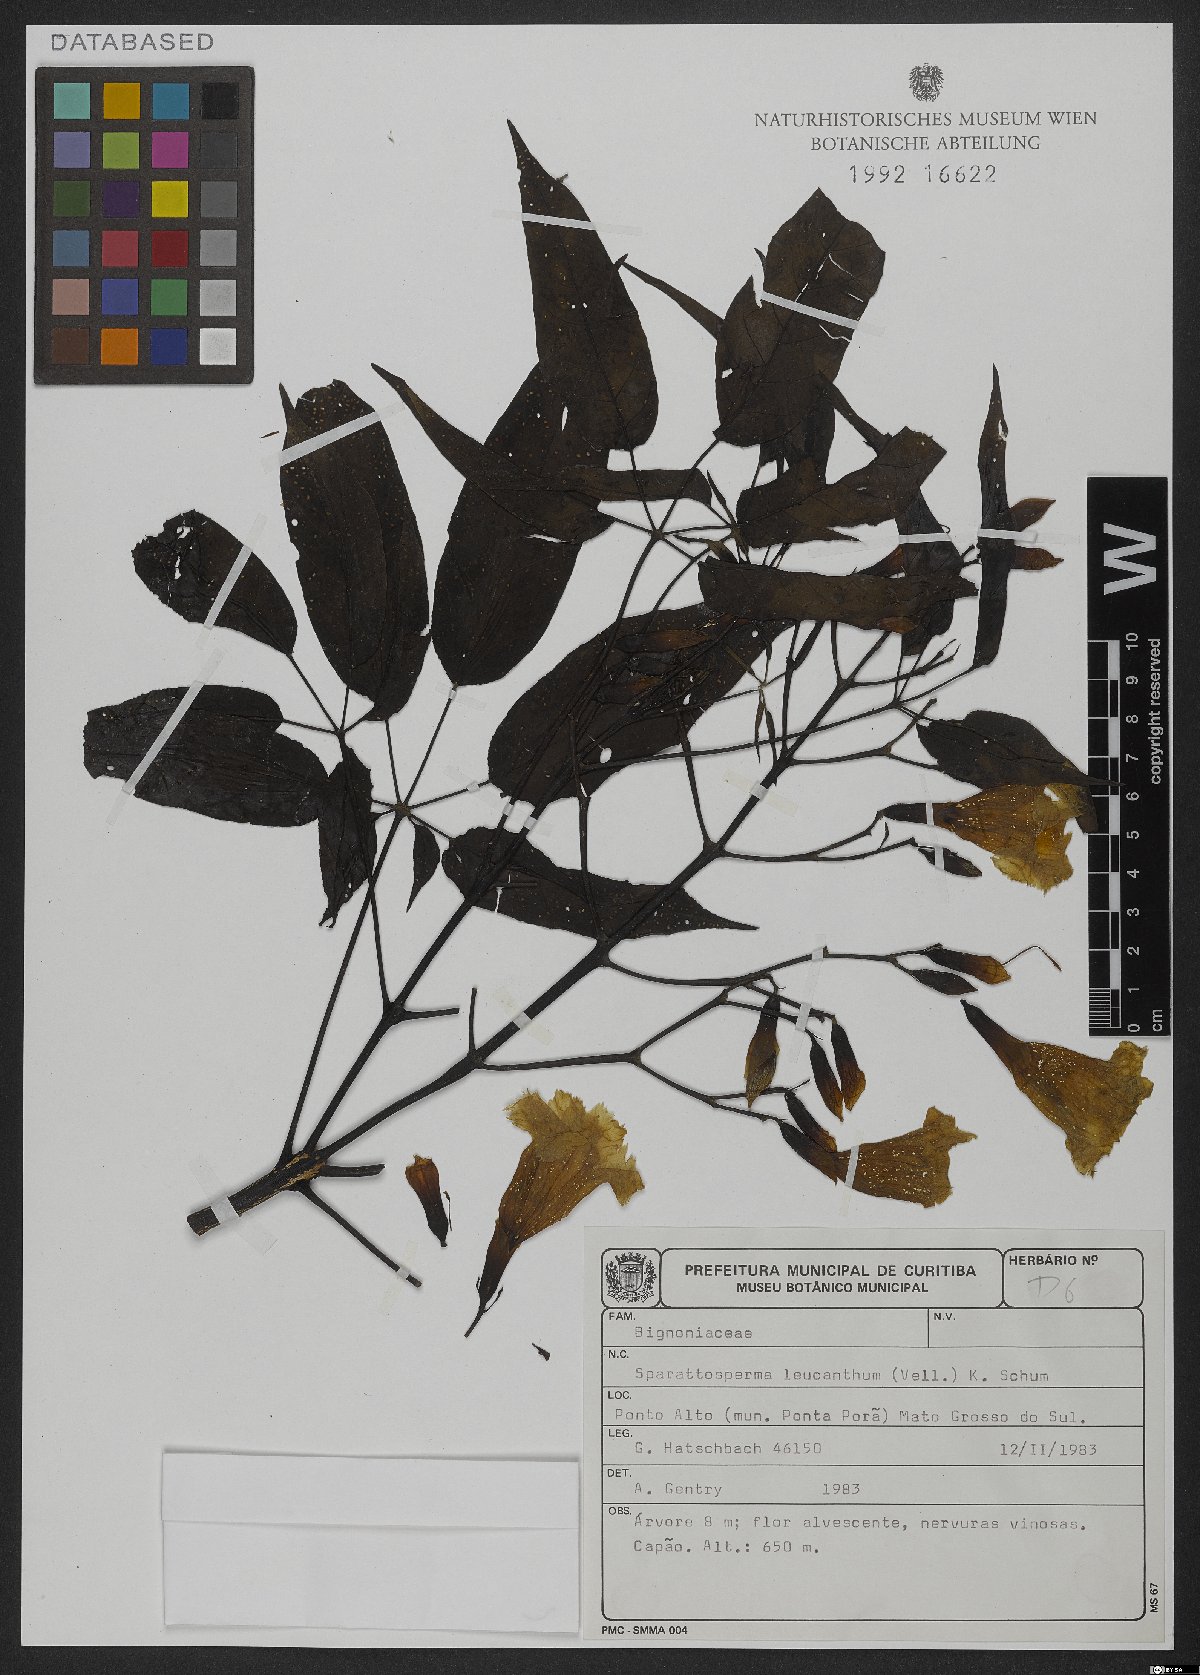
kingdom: Plantae
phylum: Tracheophyta
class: Magnoliopsida
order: Lamiales
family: Bignoniaceae
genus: Sparattosperma
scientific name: Sparattosperma leucanthum
